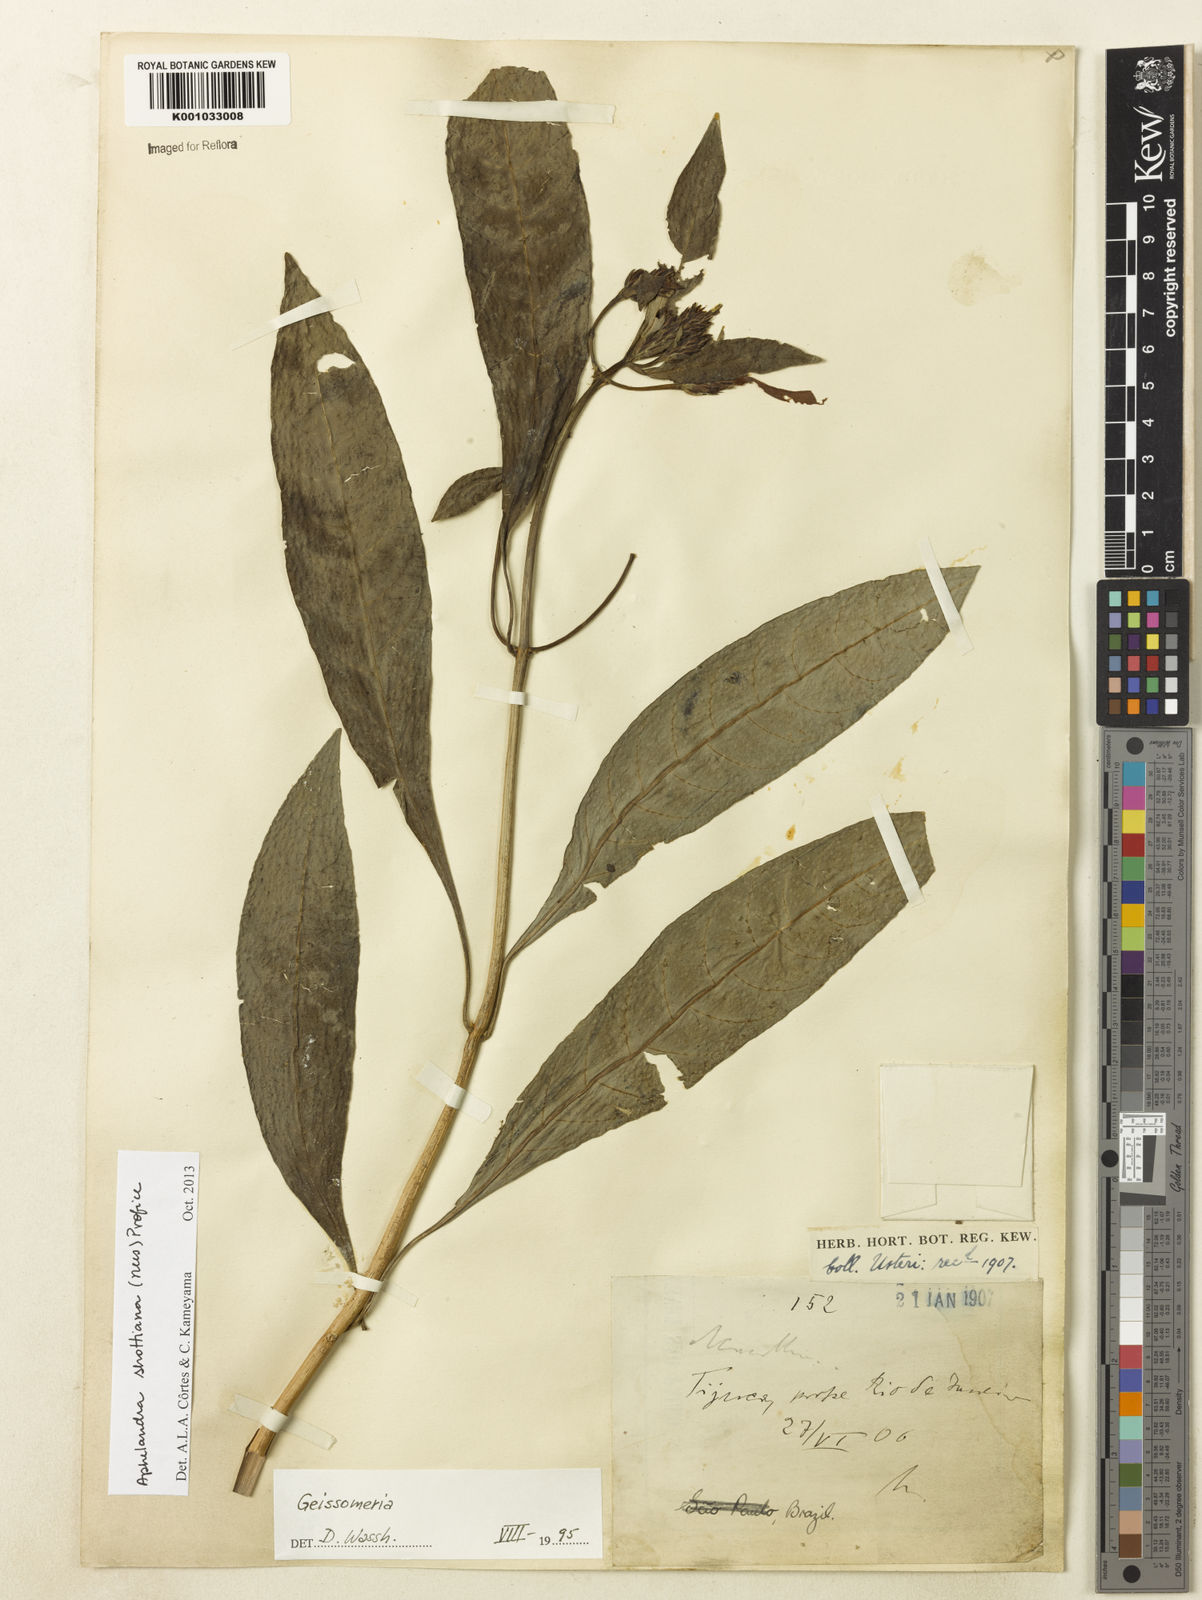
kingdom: Plantae
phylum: Tracheophyta
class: Magnoliopsida
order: Lamiales
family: Acanthaceae
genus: Aphelandra
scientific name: Aphelandra schottiana
